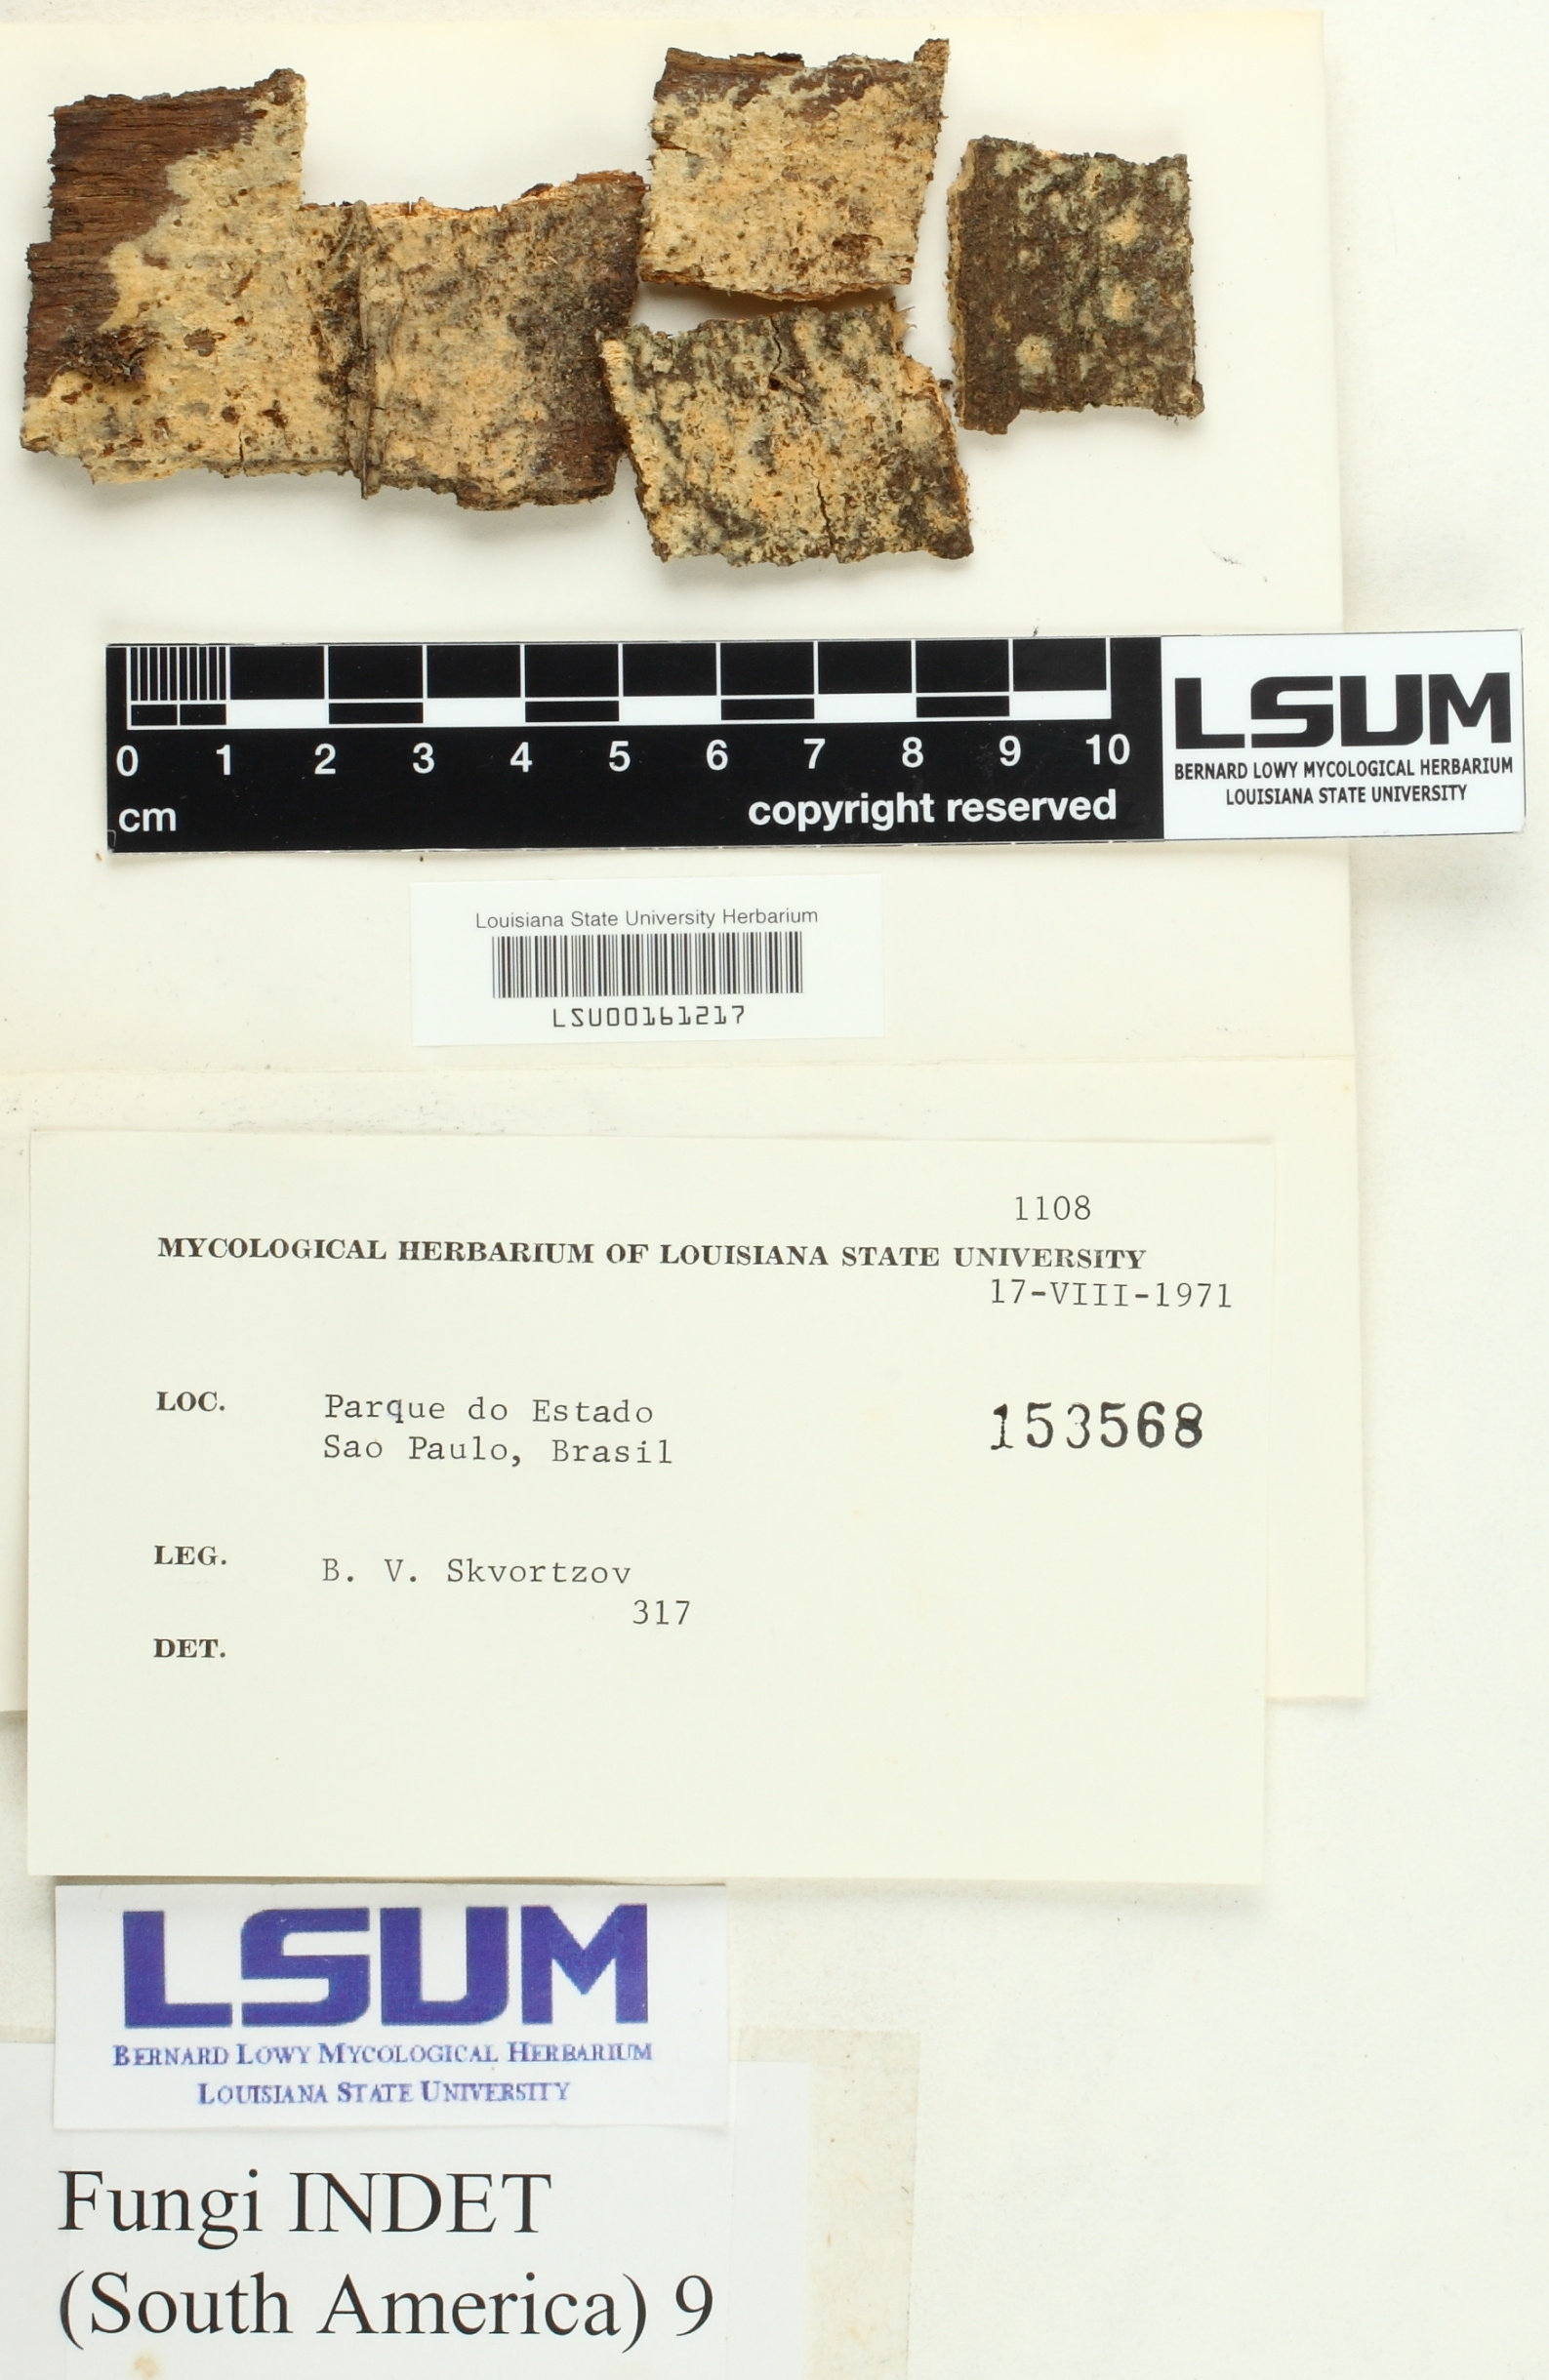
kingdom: Fungi
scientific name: Fungi
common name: Fungi
